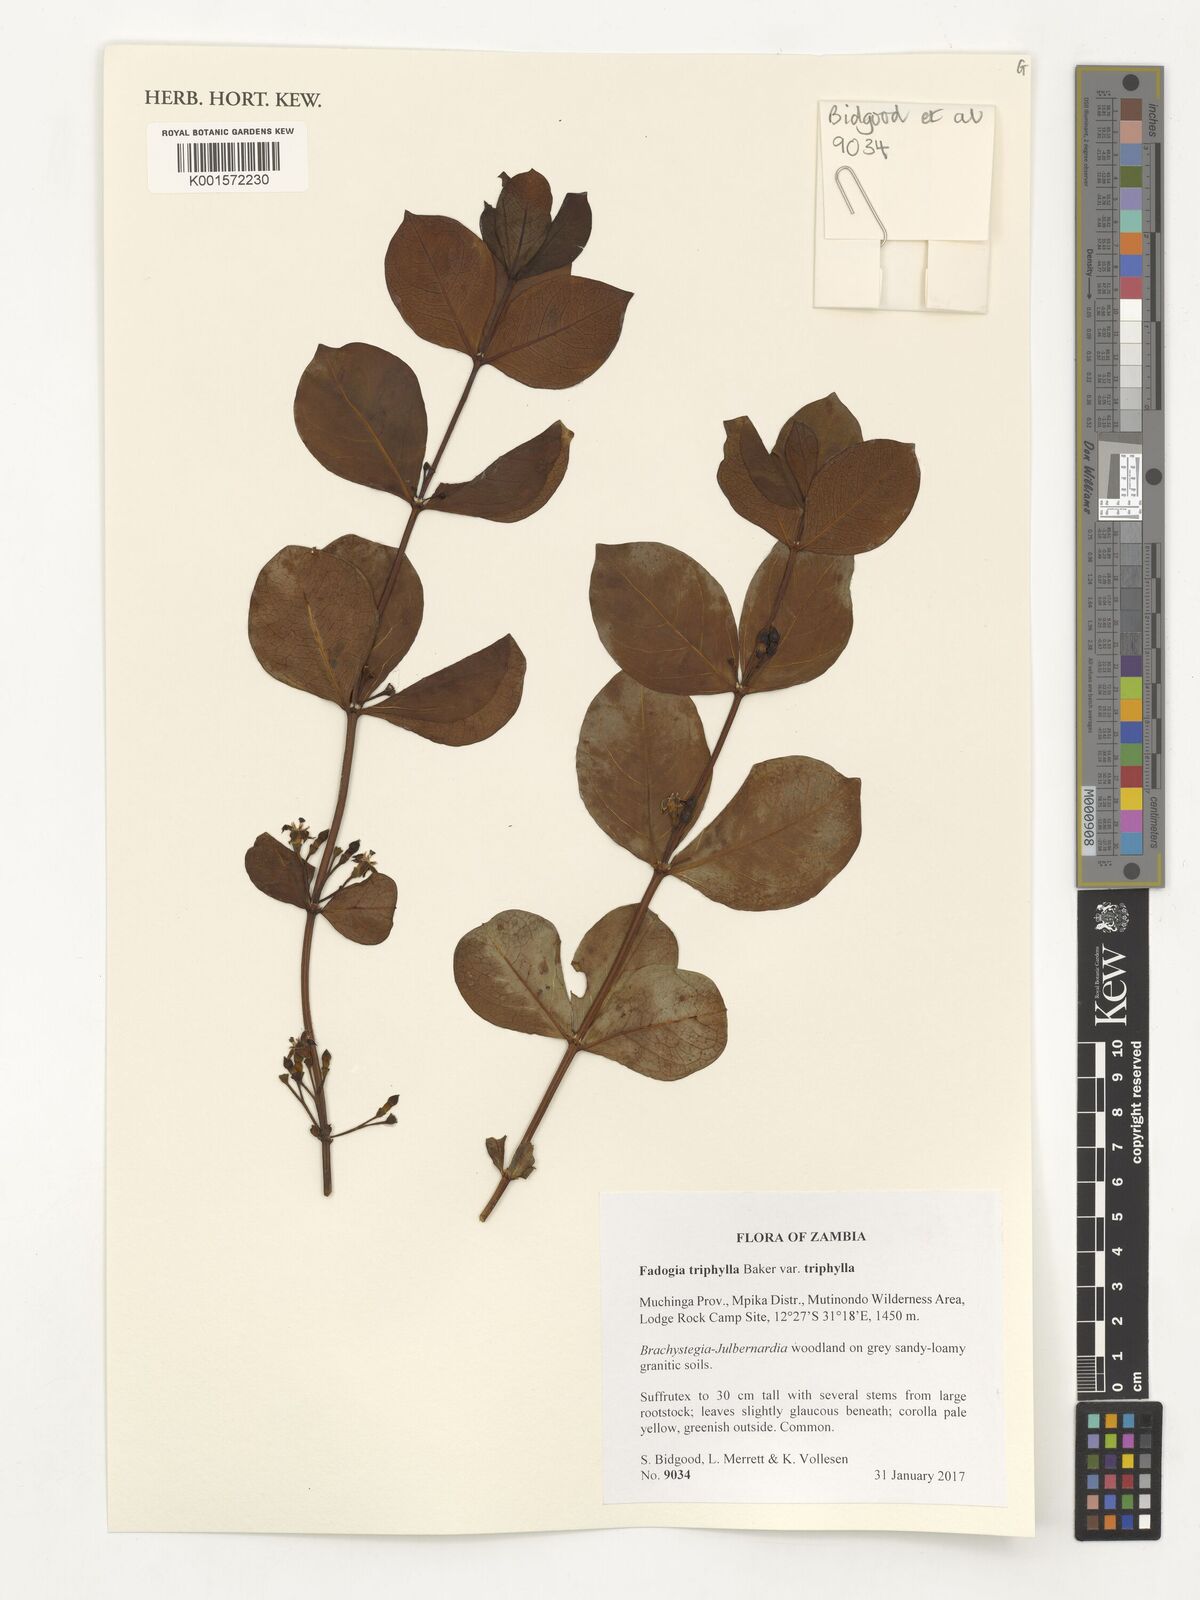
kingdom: Plantae
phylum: Tracheophyta
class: Magnoliopsida
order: Gentianales
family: Rubiaceae
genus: Fadogia
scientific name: Fadogia triphylla
